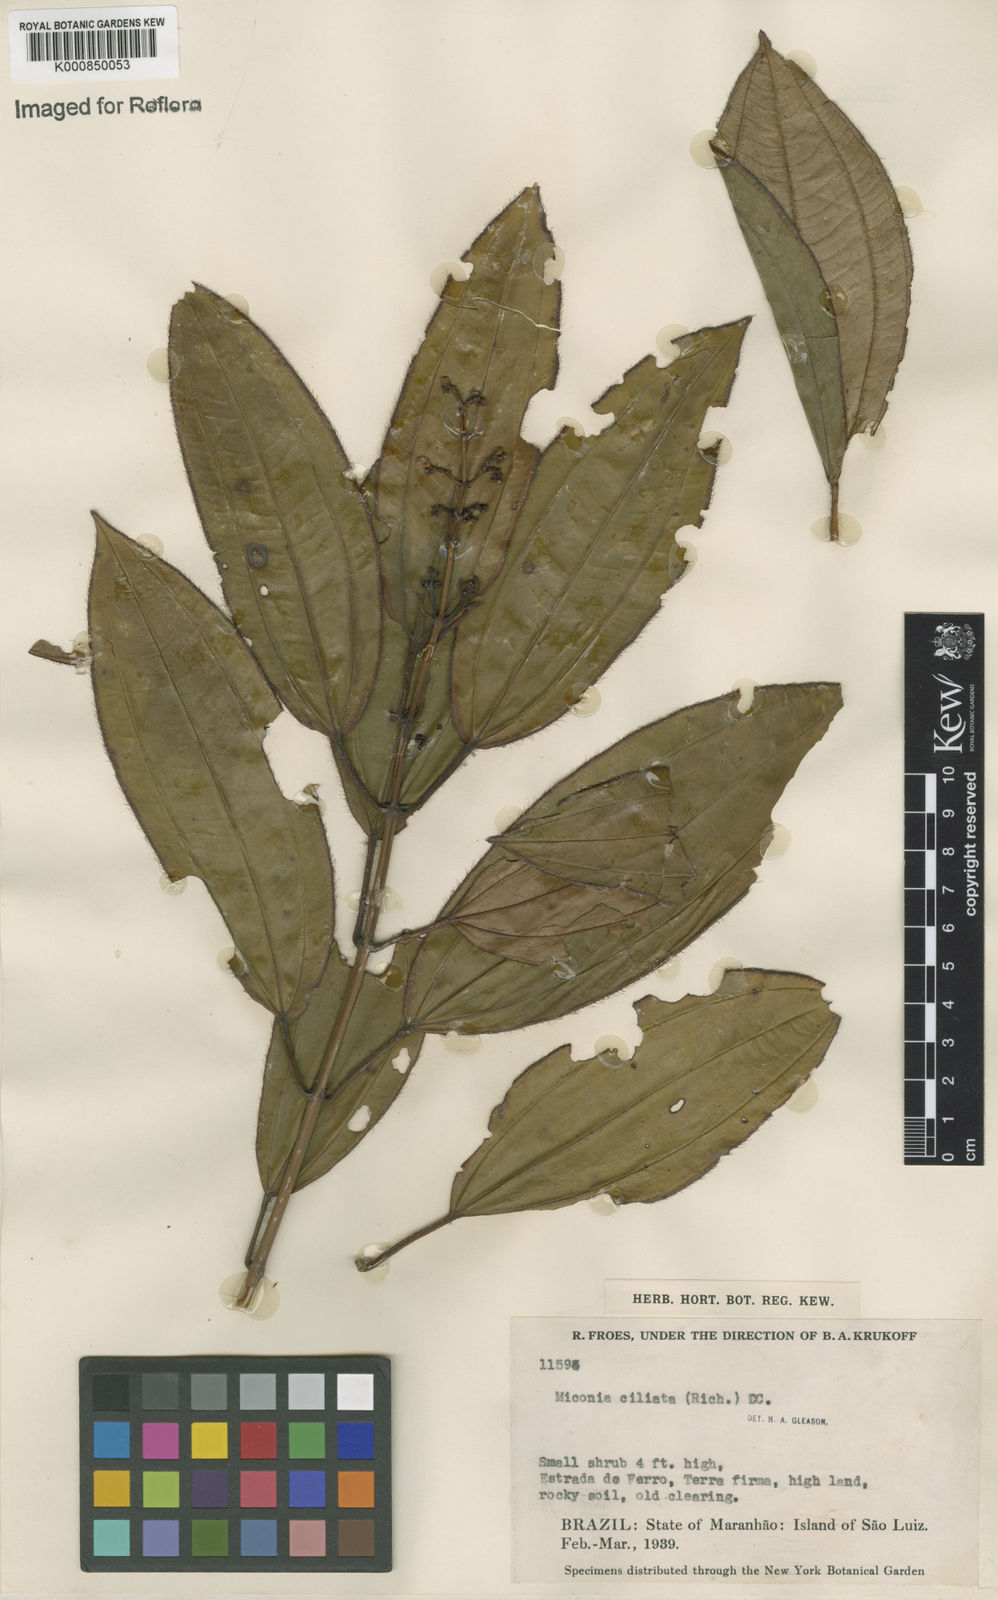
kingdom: Plantae
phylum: Tracheophyta
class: Magnoliopsida
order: Myrtales
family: Melastomataceae
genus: Miconia
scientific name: Miconia ciliata
